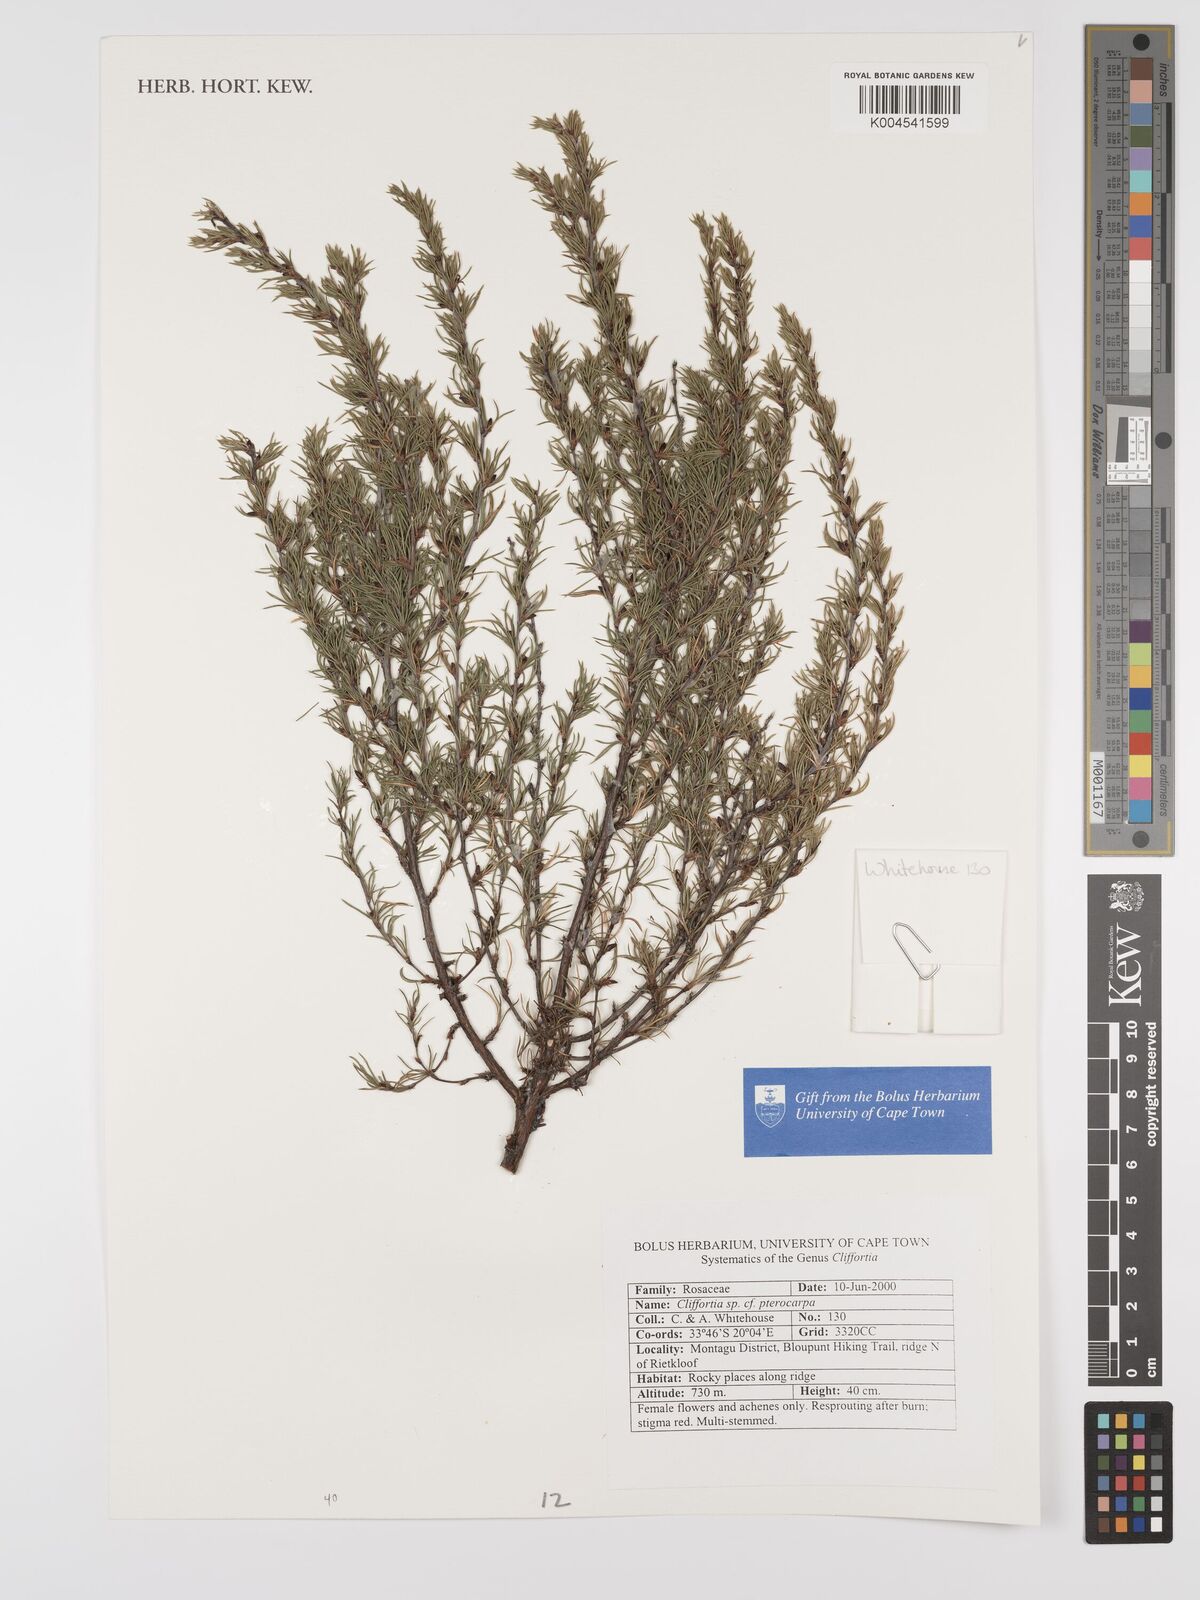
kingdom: Plantae
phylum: Tracheophyta
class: Magnoliopsida
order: Rosales
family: Rosaceae
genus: Cliffortia
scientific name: Cliffortia pterocarpa
